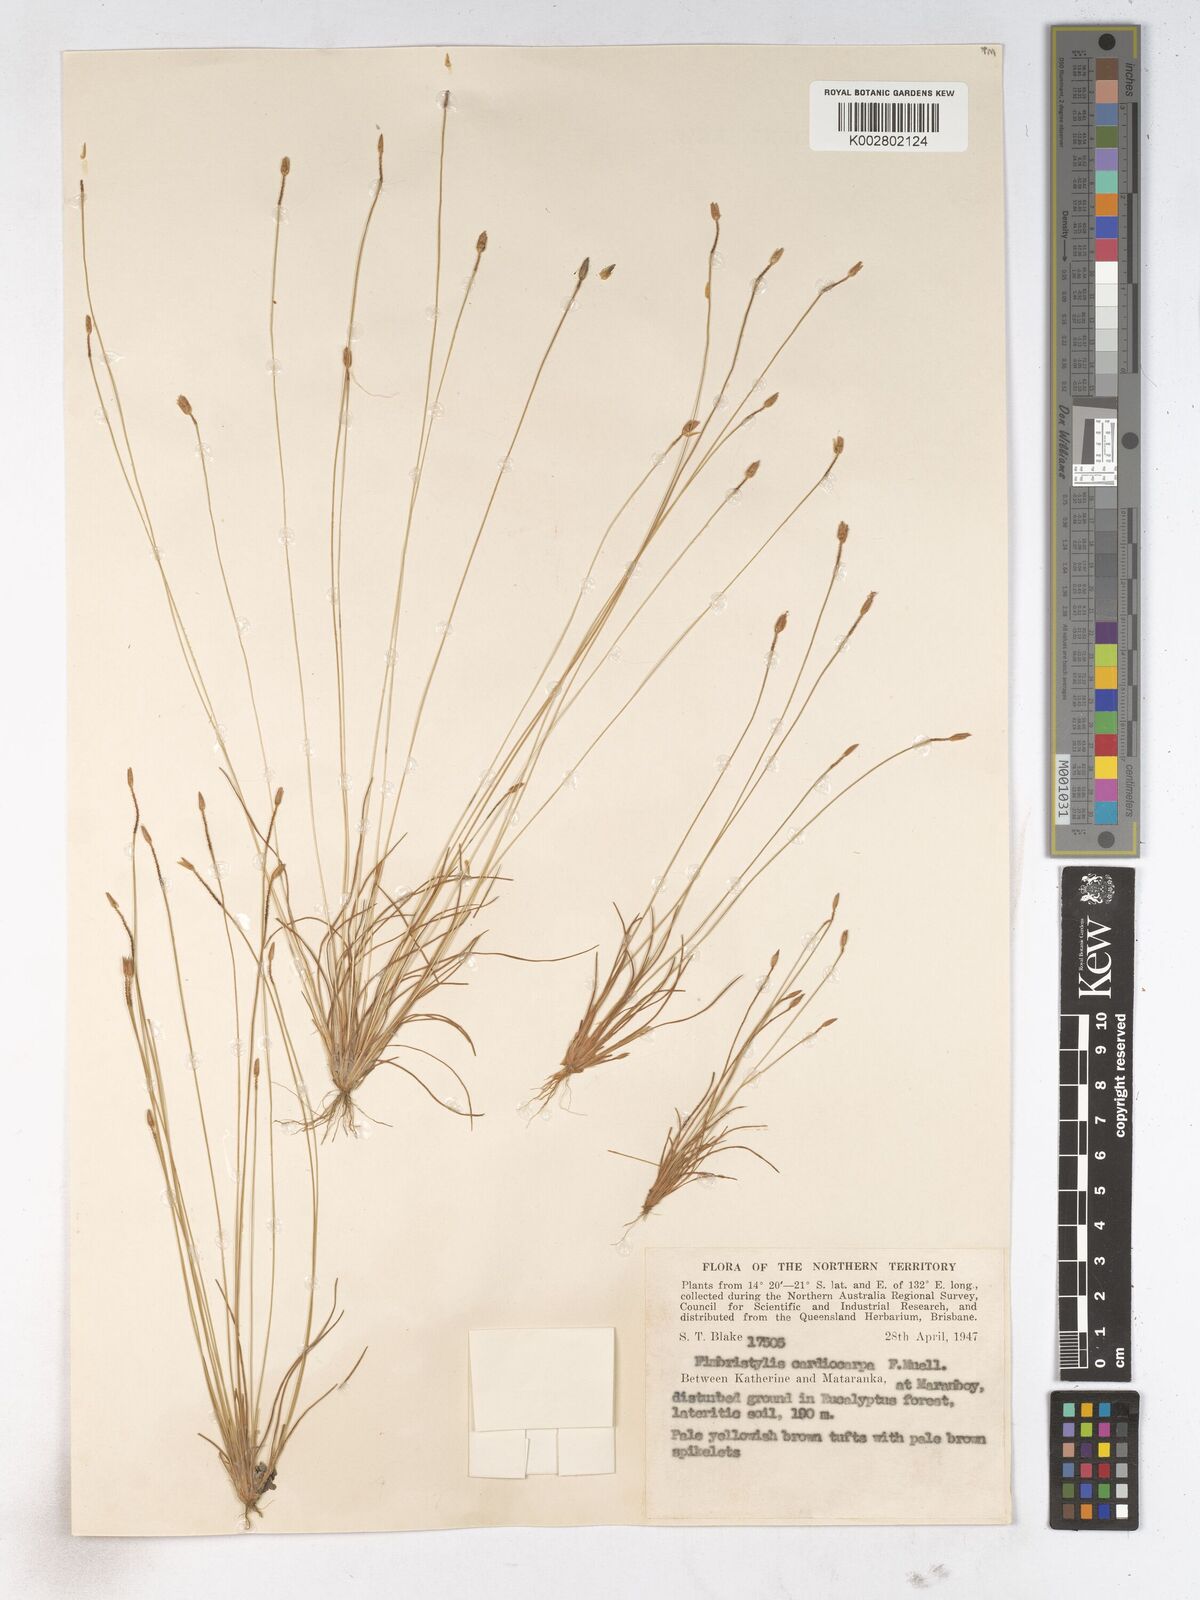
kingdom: Plantae
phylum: Tracheophyta
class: Liliopsida
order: Poales
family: Cyperaceae
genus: Fimbristylis
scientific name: Fimbristylis cardiocarpa
